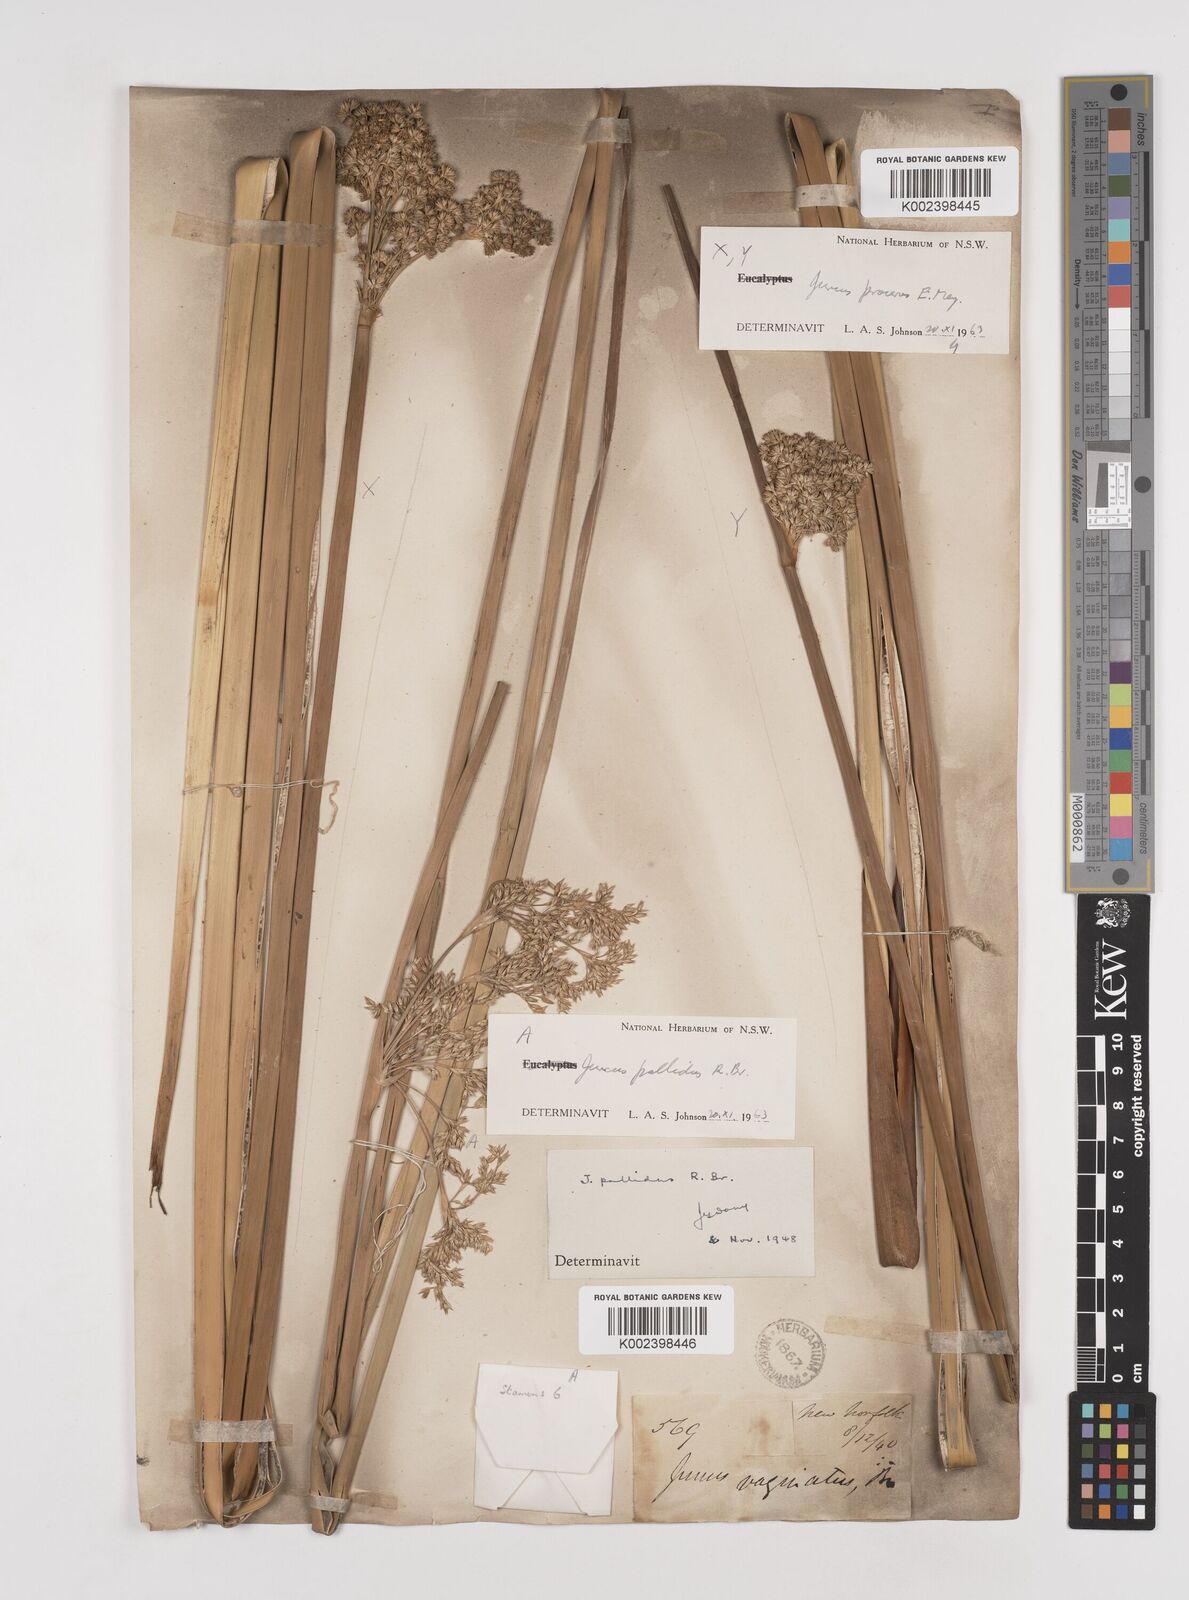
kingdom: Plantae
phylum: Tracheophyta
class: Liliopsida
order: Poales
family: Juncaceae
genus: Juncus
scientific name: Juncus procerus
